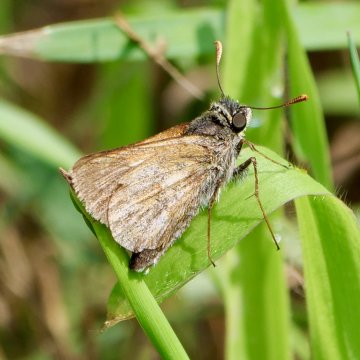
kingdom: Animalia
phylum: Arthropoda
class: Insecta
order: Lepidoptera
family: Hesperiidae
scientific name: Hesperiidae
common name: Skippers
